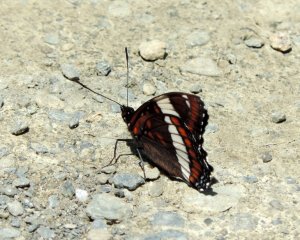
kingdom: Animalia
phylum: Arthropoda
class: Insecta
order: Lepidoptera
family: Nymphalidae
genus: Limenitis
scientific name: Limenitis arthemis
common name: Red-spotted Admiral
